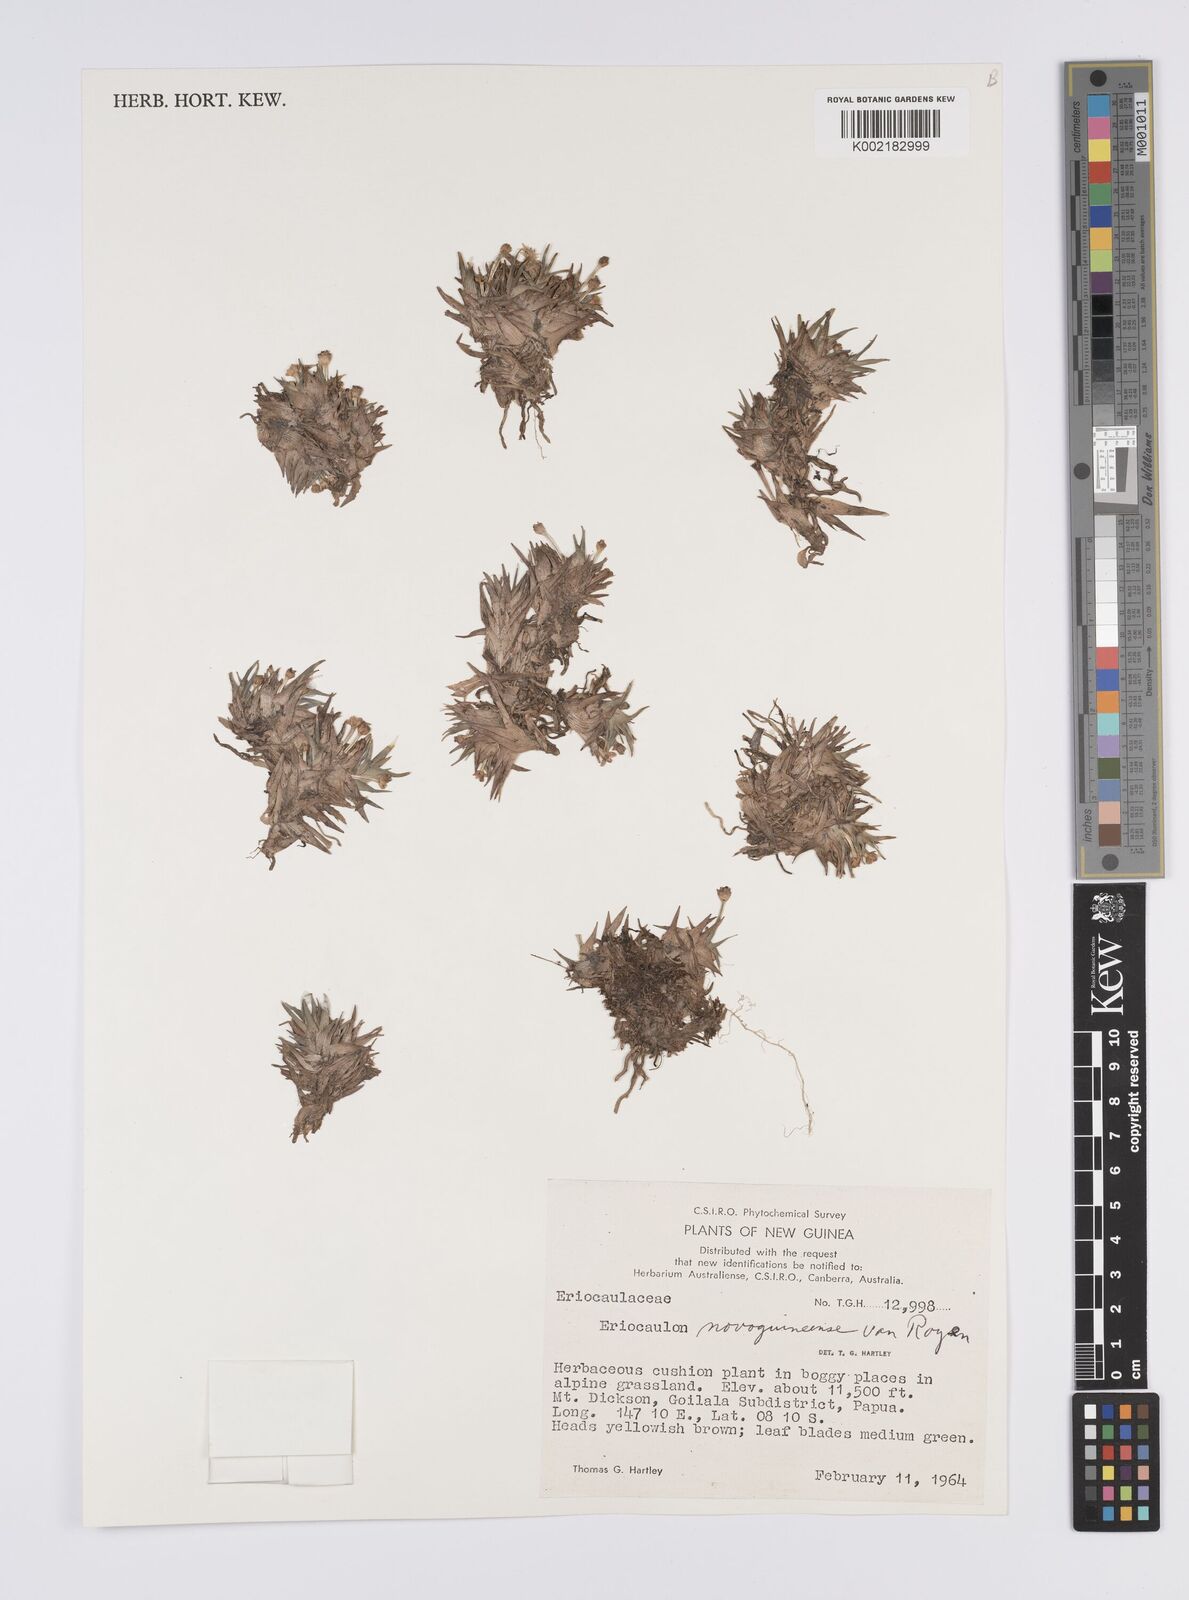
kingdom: Plantae
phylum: Tracheophyta
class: Liliopsida
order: Poales
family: Eriocaulaceae
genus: Eriocaulon
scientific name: Eriocaulon novoguineense
